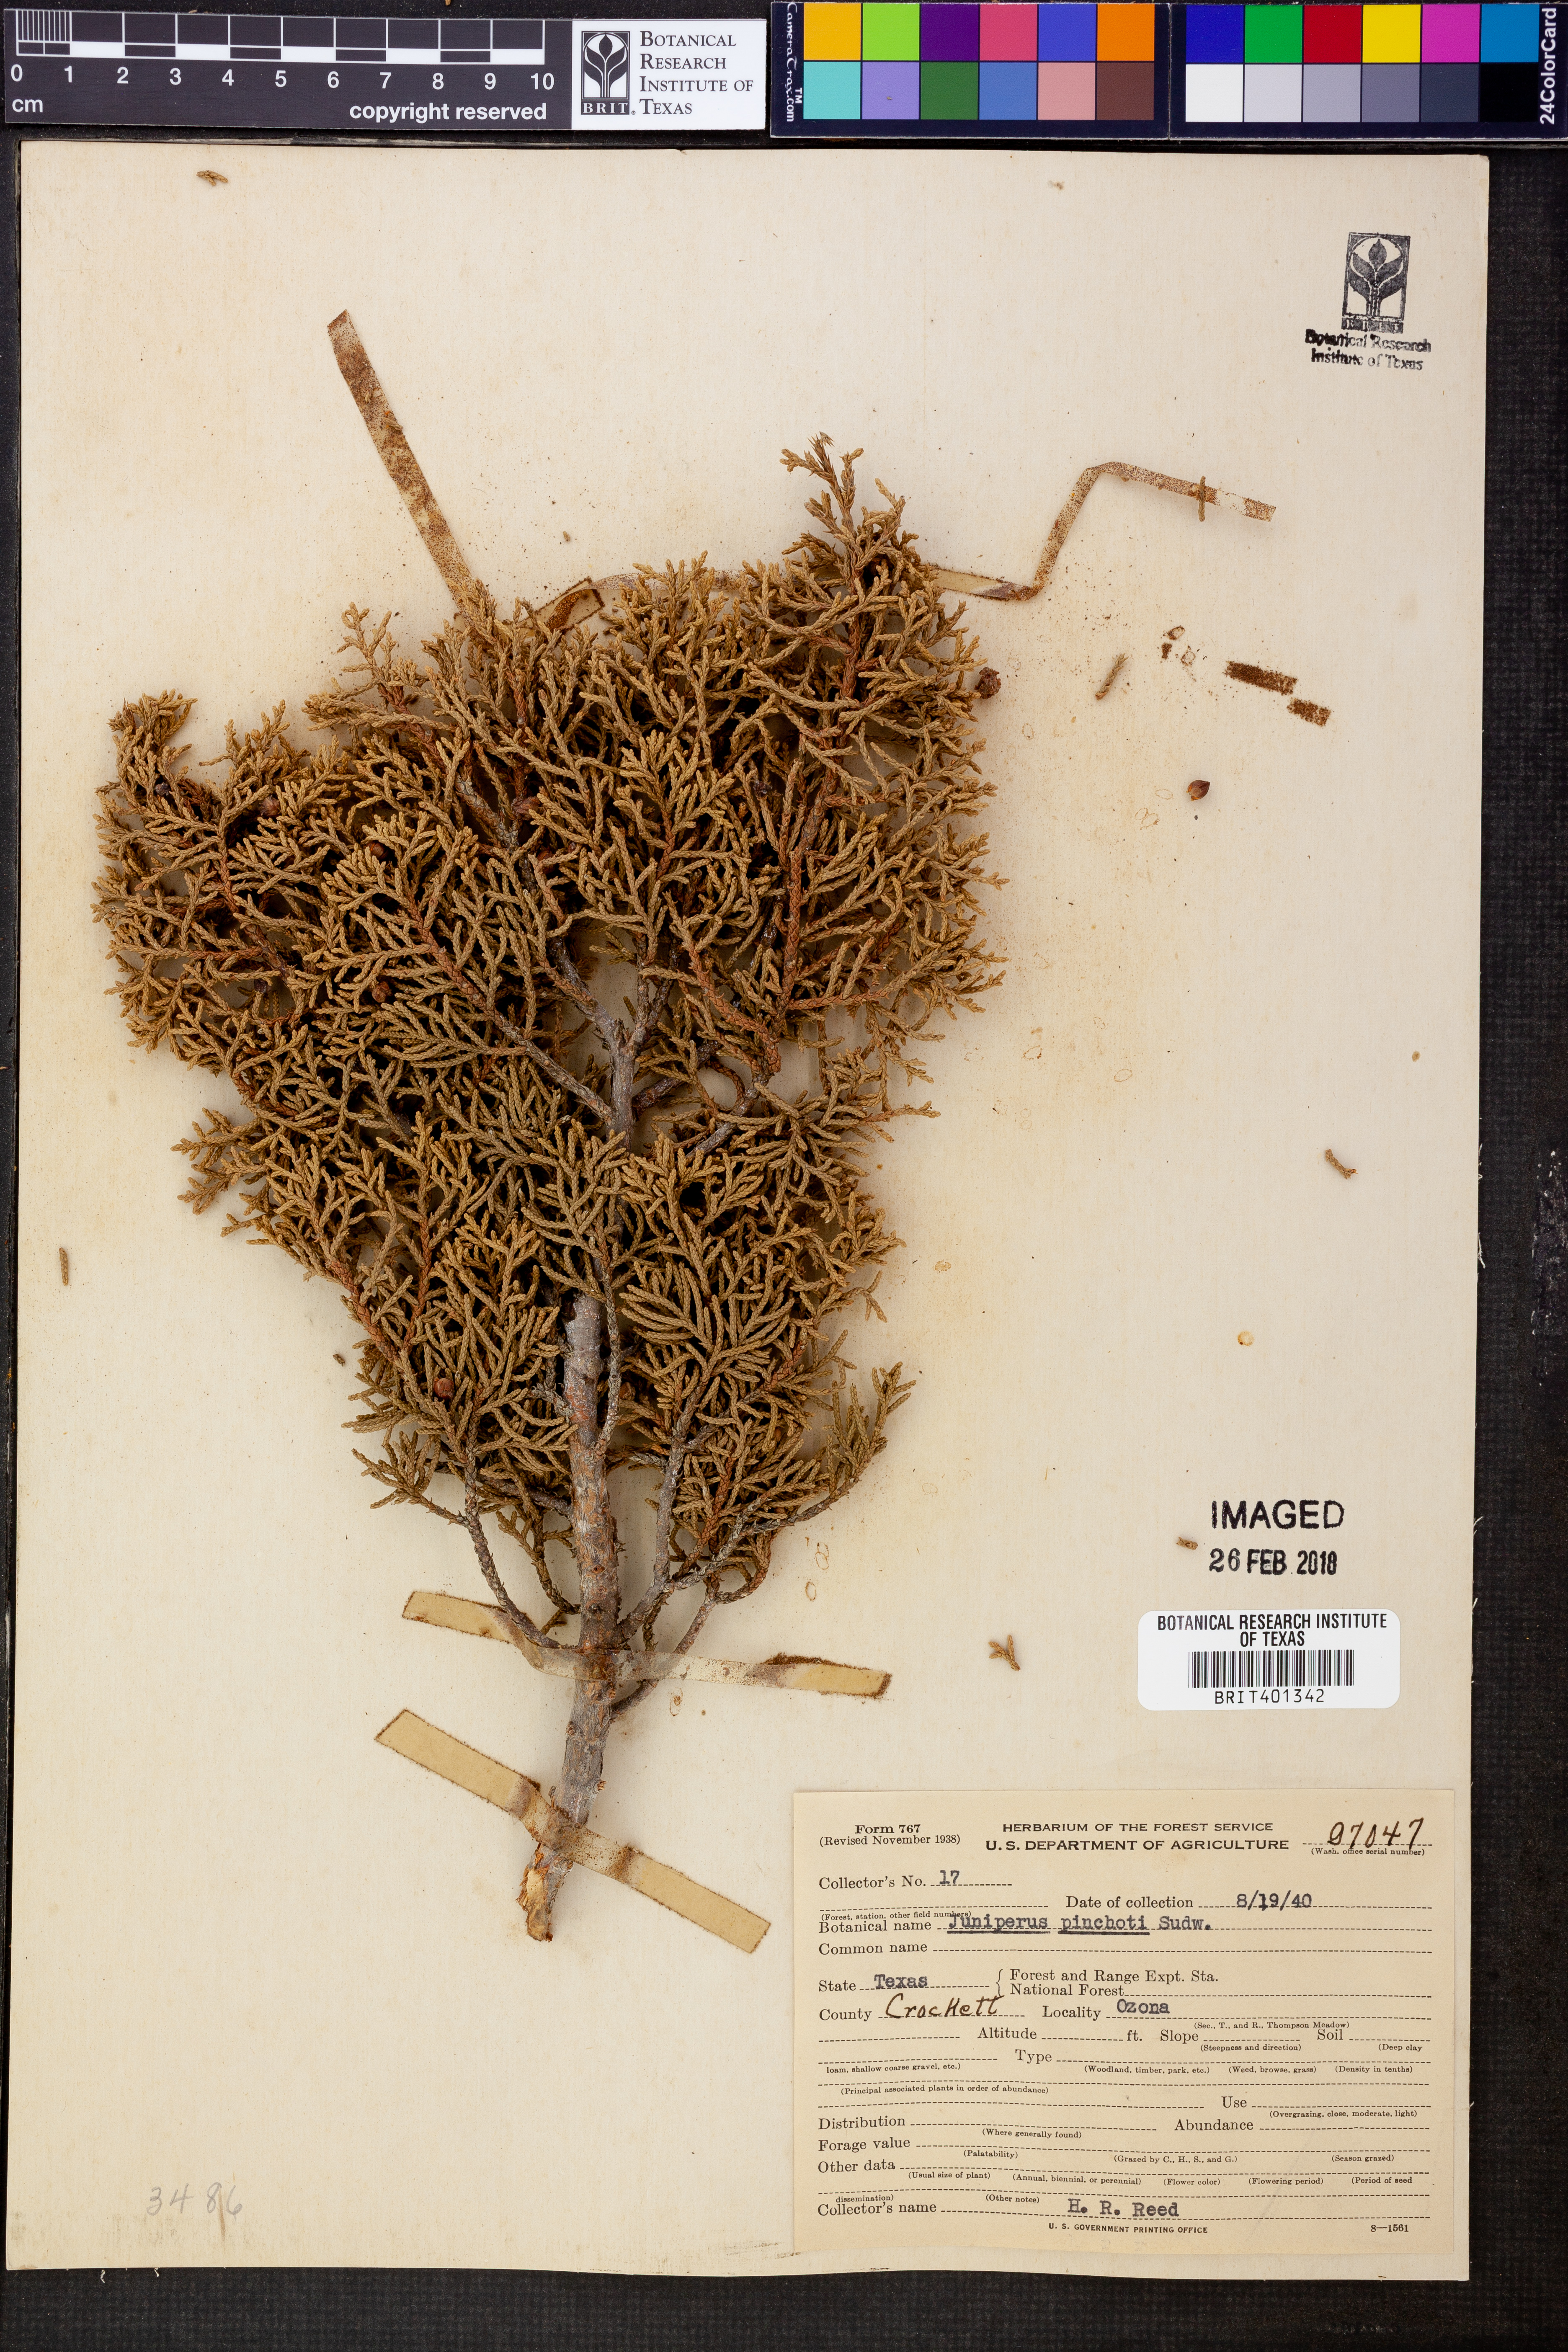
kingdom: Plantae
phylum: Tracheophyta
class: Pinopsida
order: Pinales
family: Cupressaceae
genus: Juniperus
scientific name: Juniperus pinchotii
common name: Pinchot juniper
